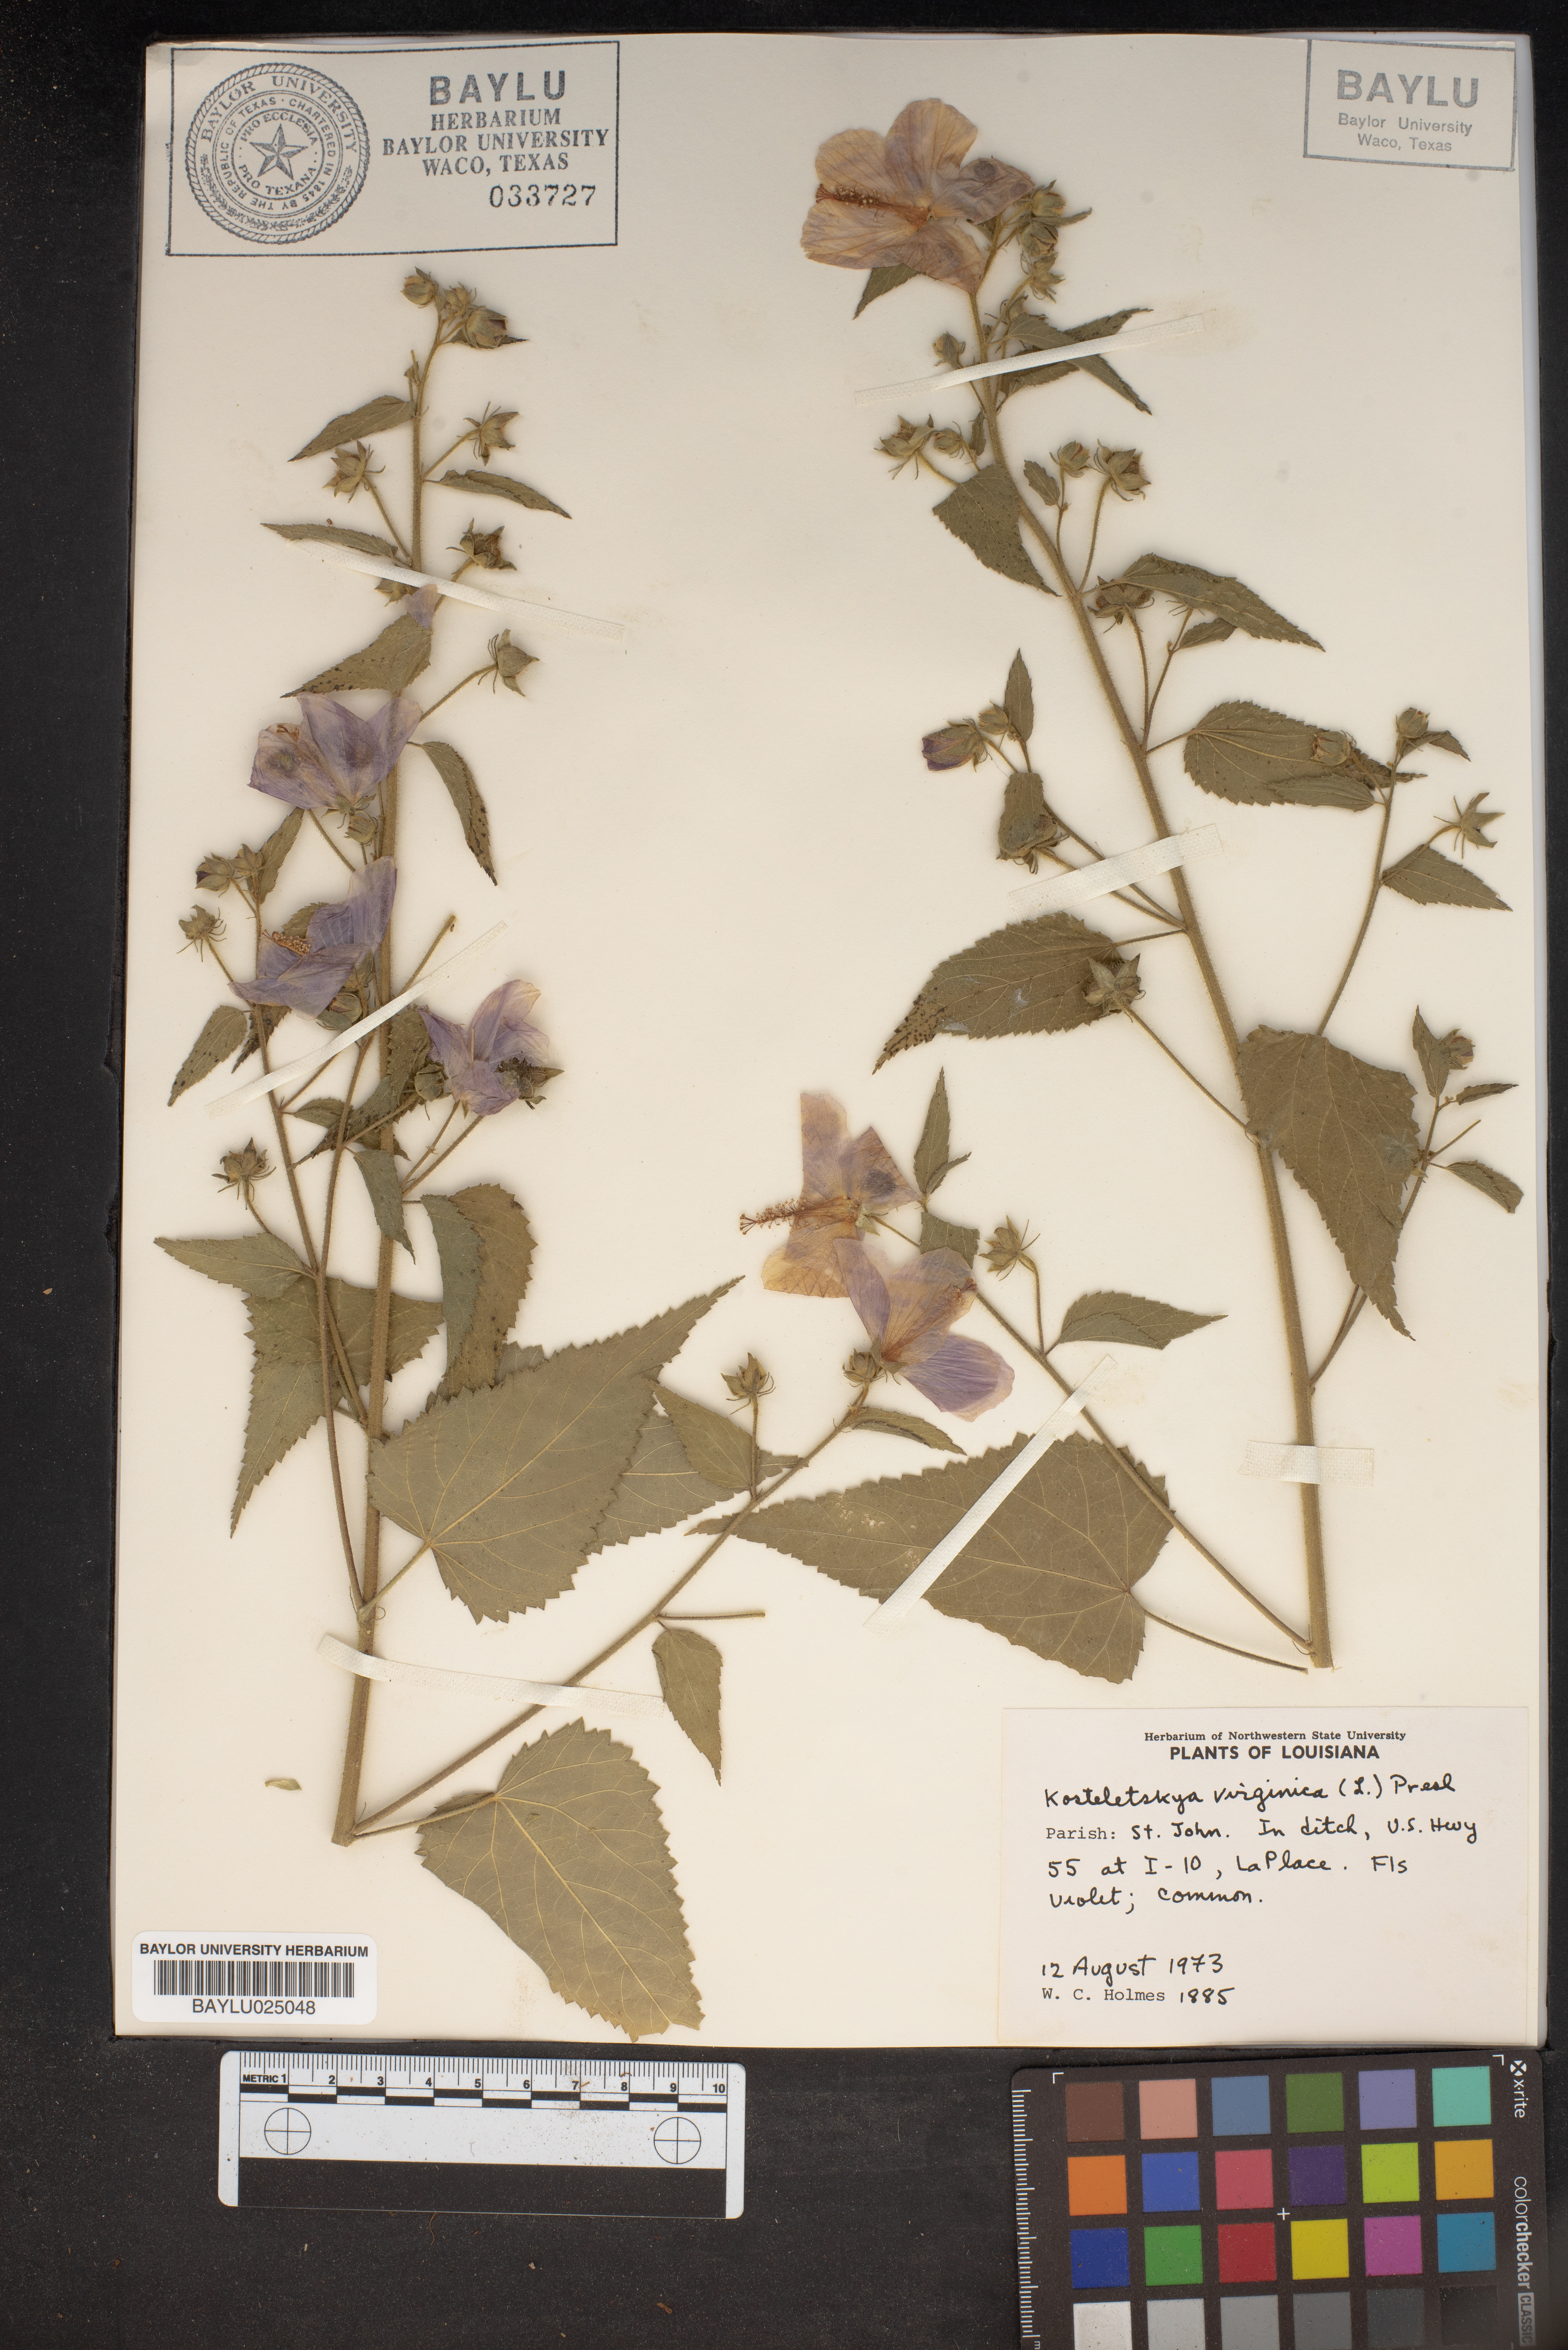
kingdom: Plantae
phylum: Tracheophyta
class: Magnoliopsida
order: Malvales
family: Malvaceae
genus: Kosteletzkya
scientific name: Kosteletzkya pentacarpos
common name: Virginia saltmarsh mallow
